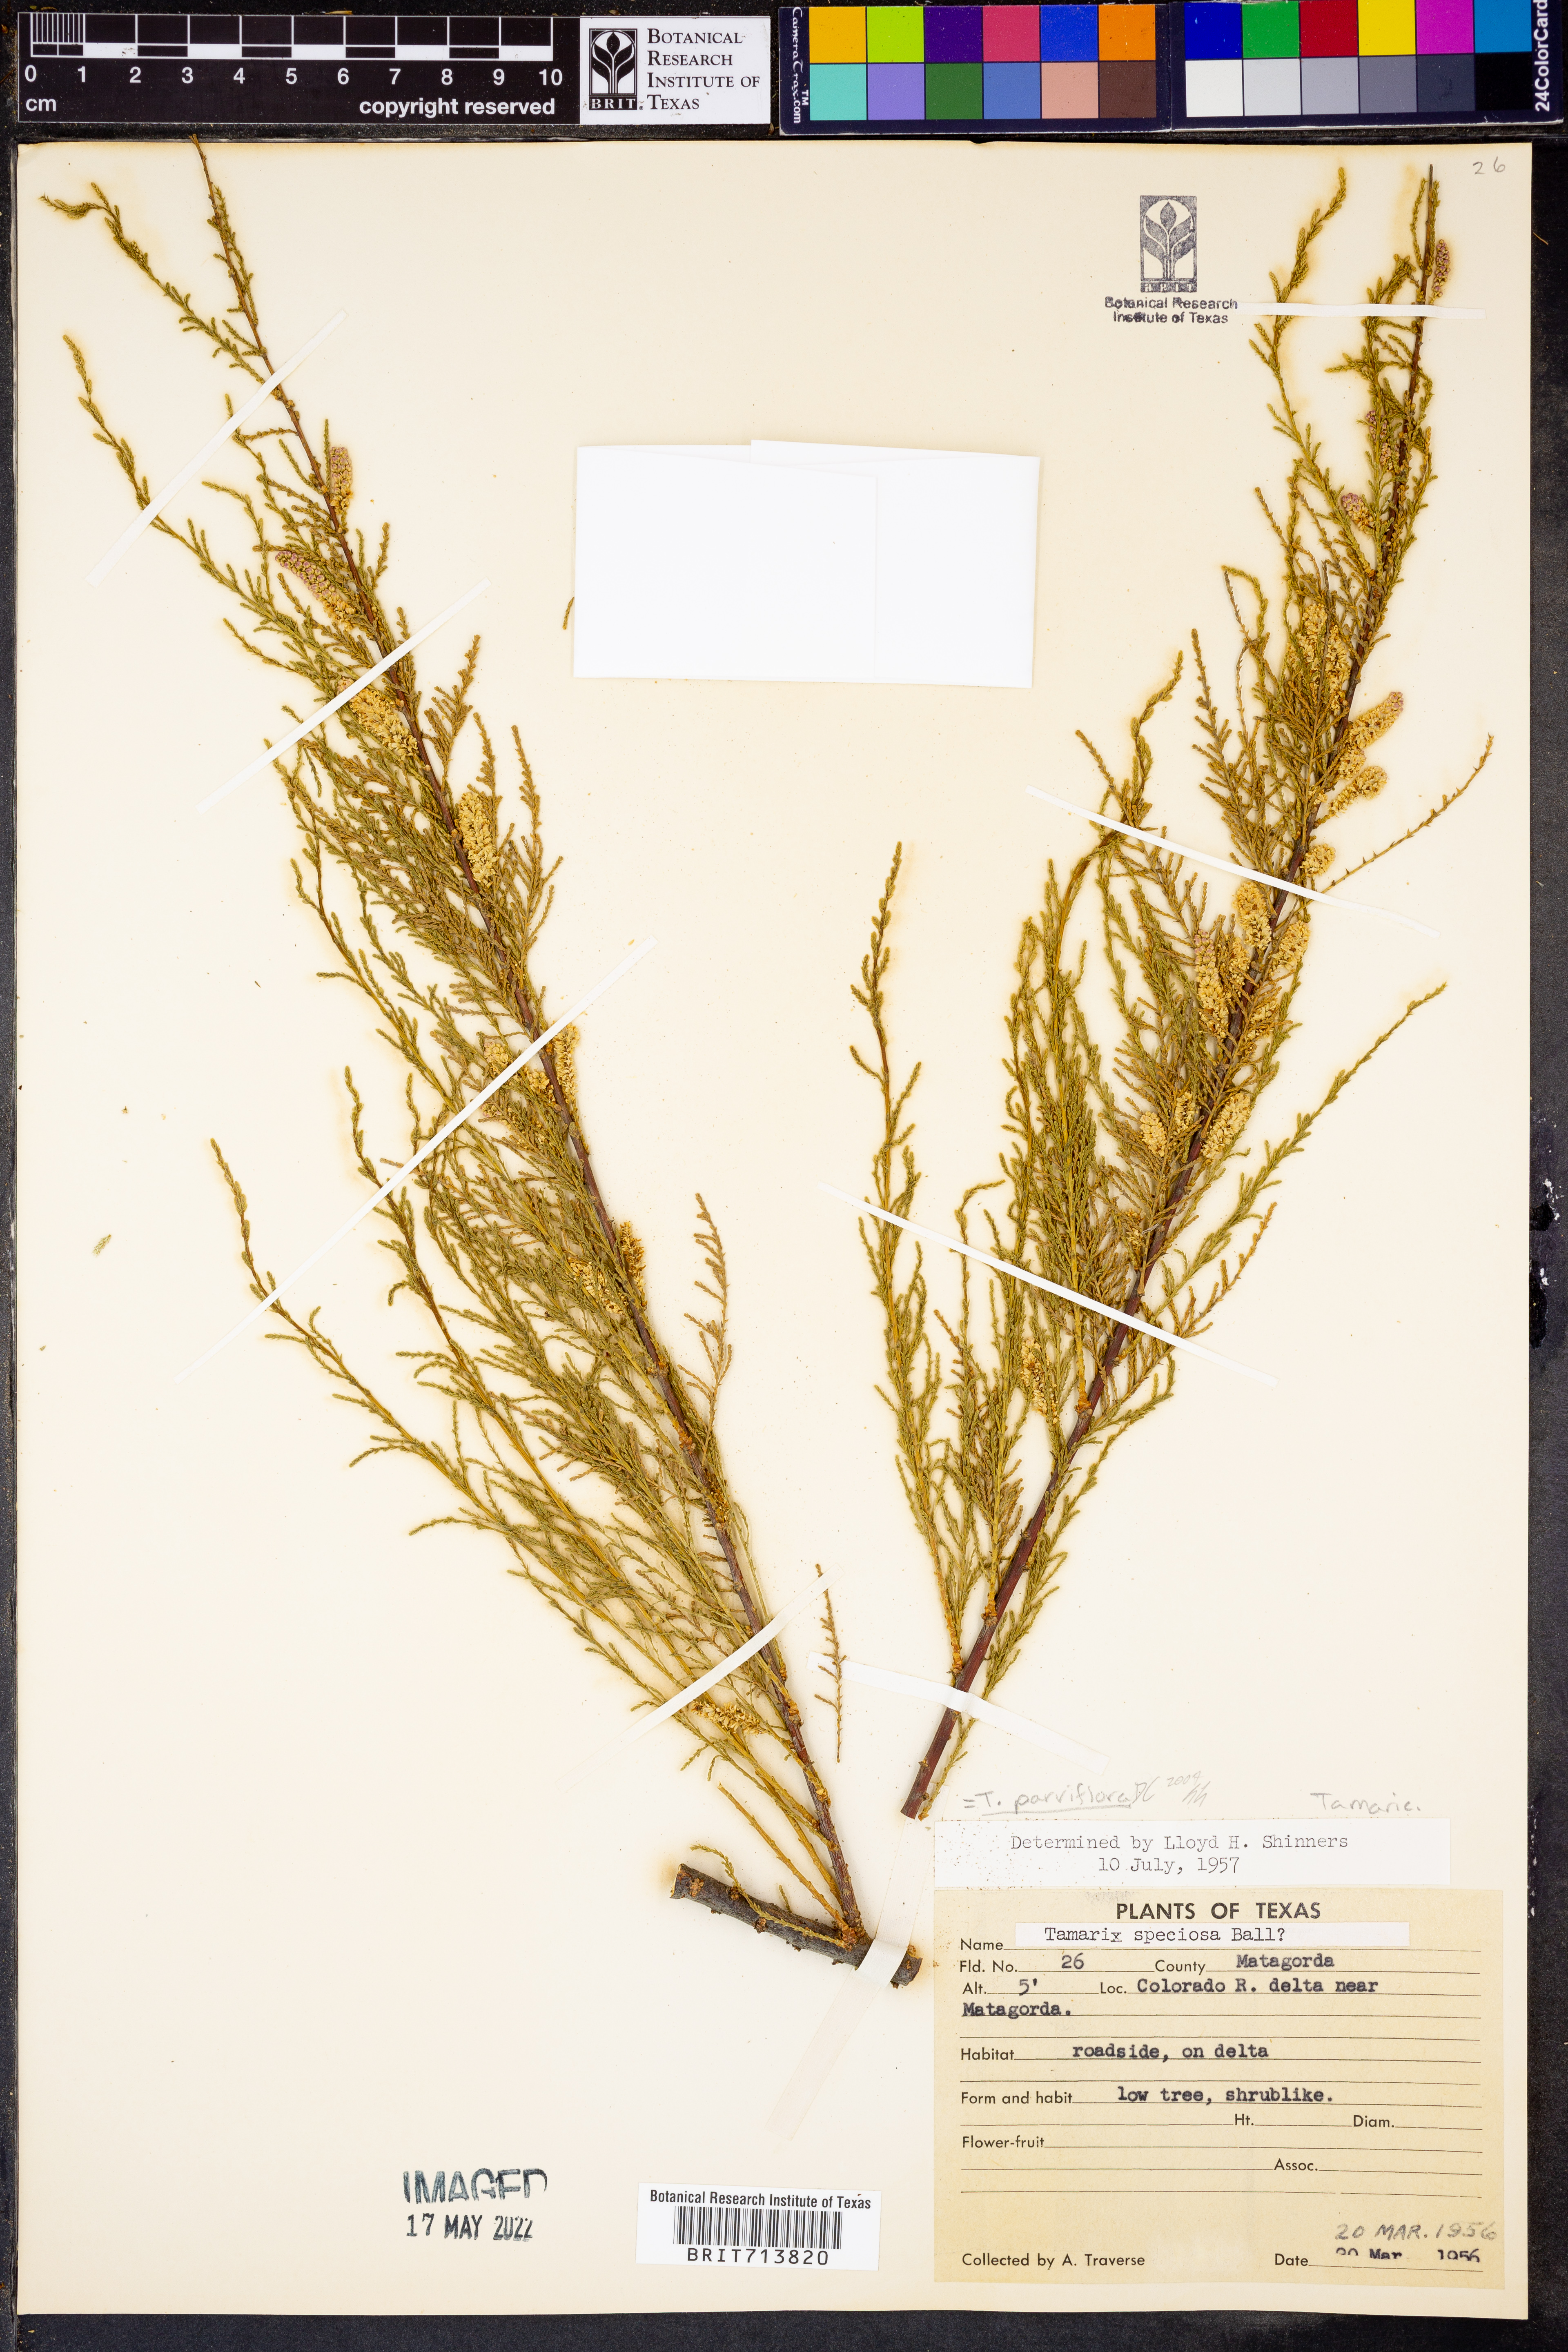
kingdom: Plantae
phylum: Tracheophyta
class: Magnoliopsida
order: Caryophyllales
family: Tamaricaceae
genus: Tamarix
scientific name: Tamarix parviflora
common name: Smallflower tamarisk
